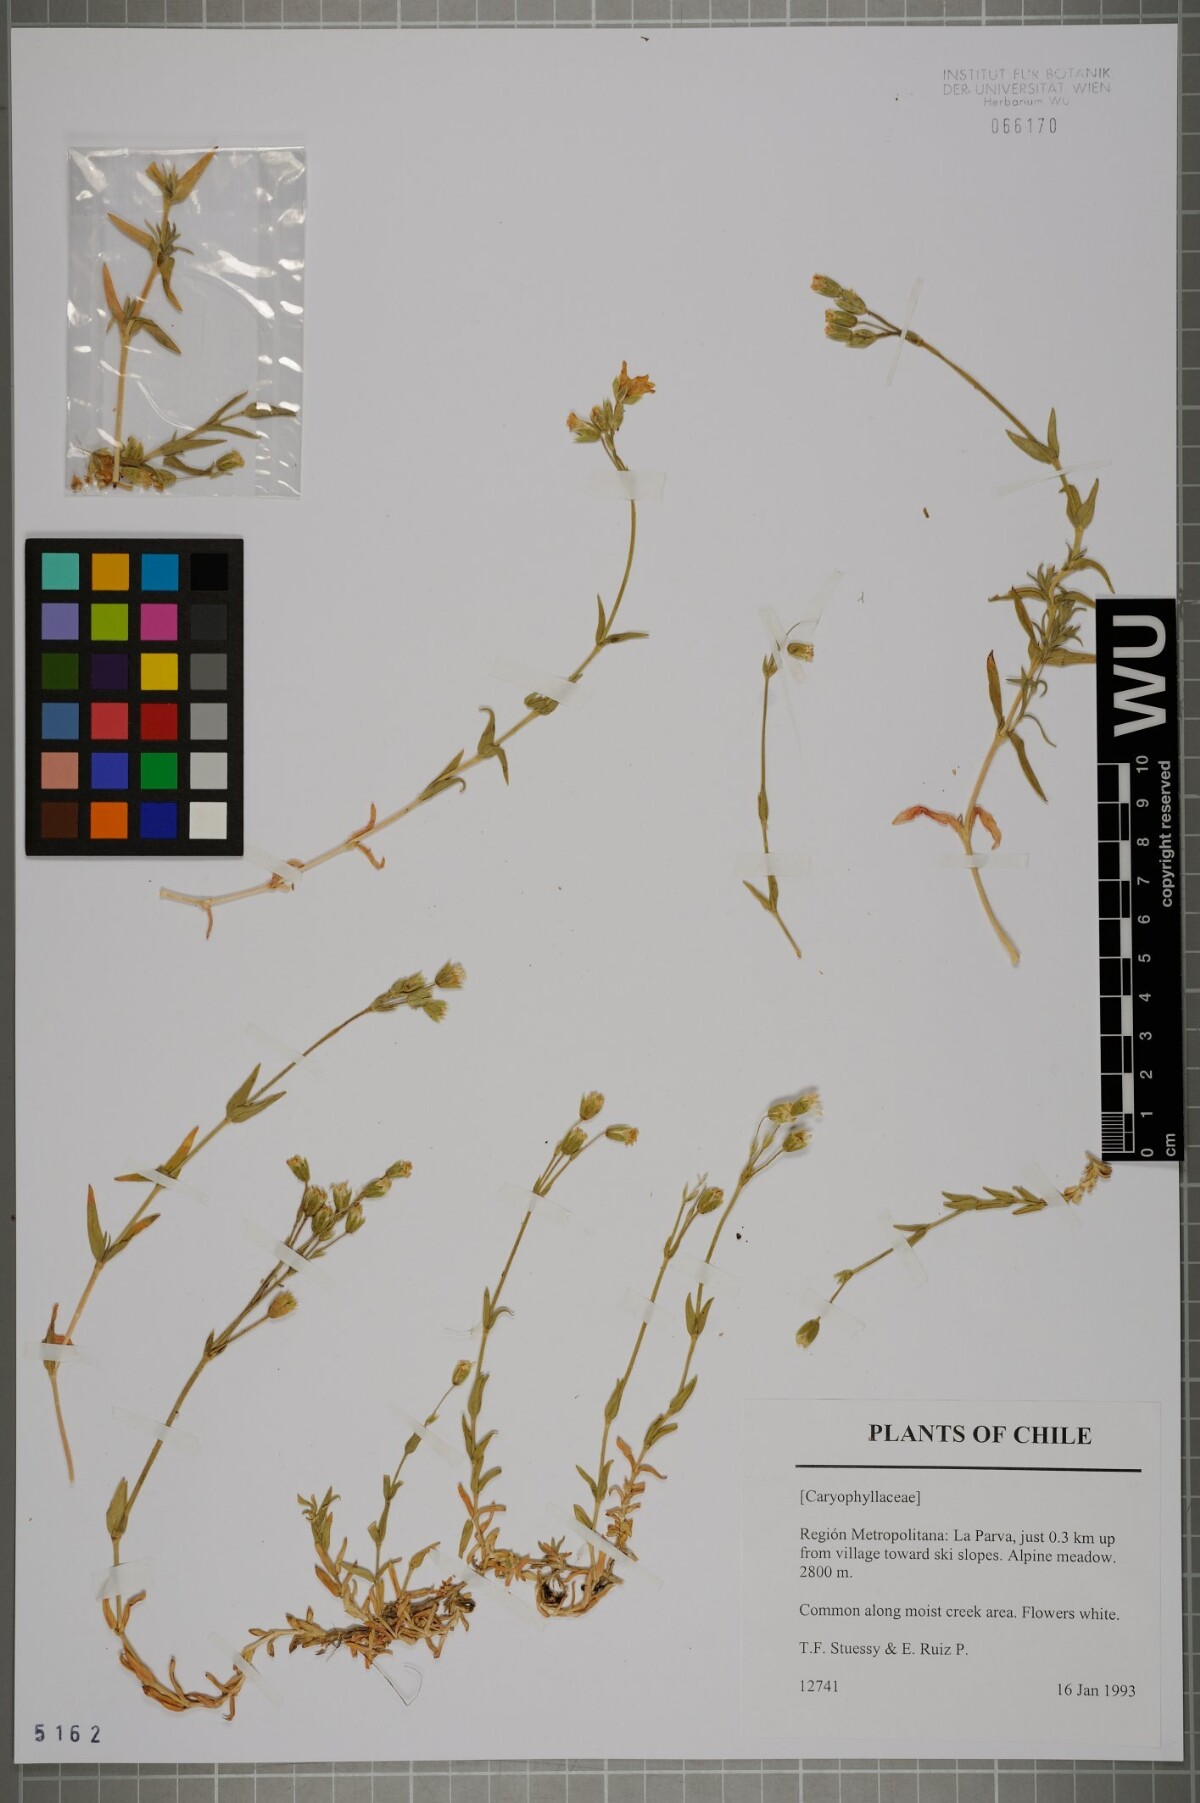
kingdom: Plantae
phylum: Tracheophyta
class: Magnoliopsida
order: Caryophyllales
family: Caryophyllaceae
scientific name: Caryophyllaceae
